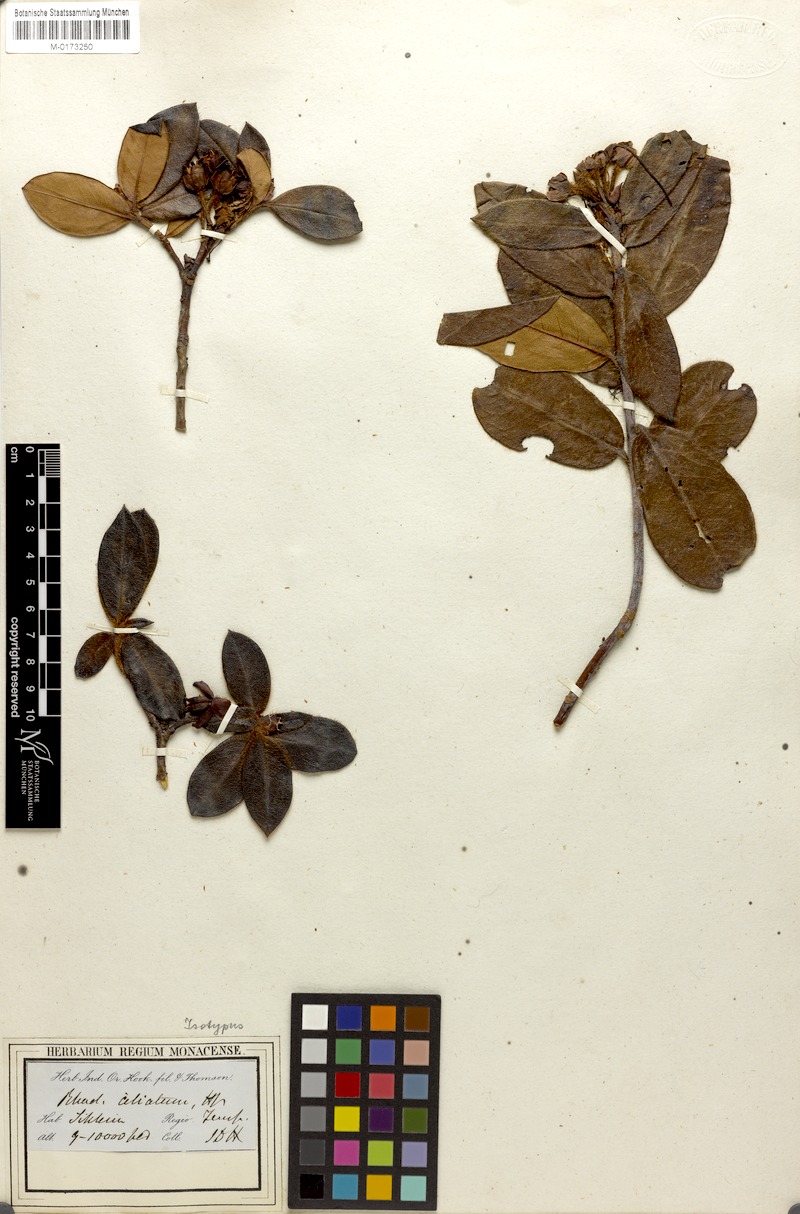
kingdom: Plantae
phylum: Tracheophyta
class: Magnoliopsida
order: Ericales
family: Ericaceae
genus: Rhododendron
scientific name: Rhododendron ciliatum
